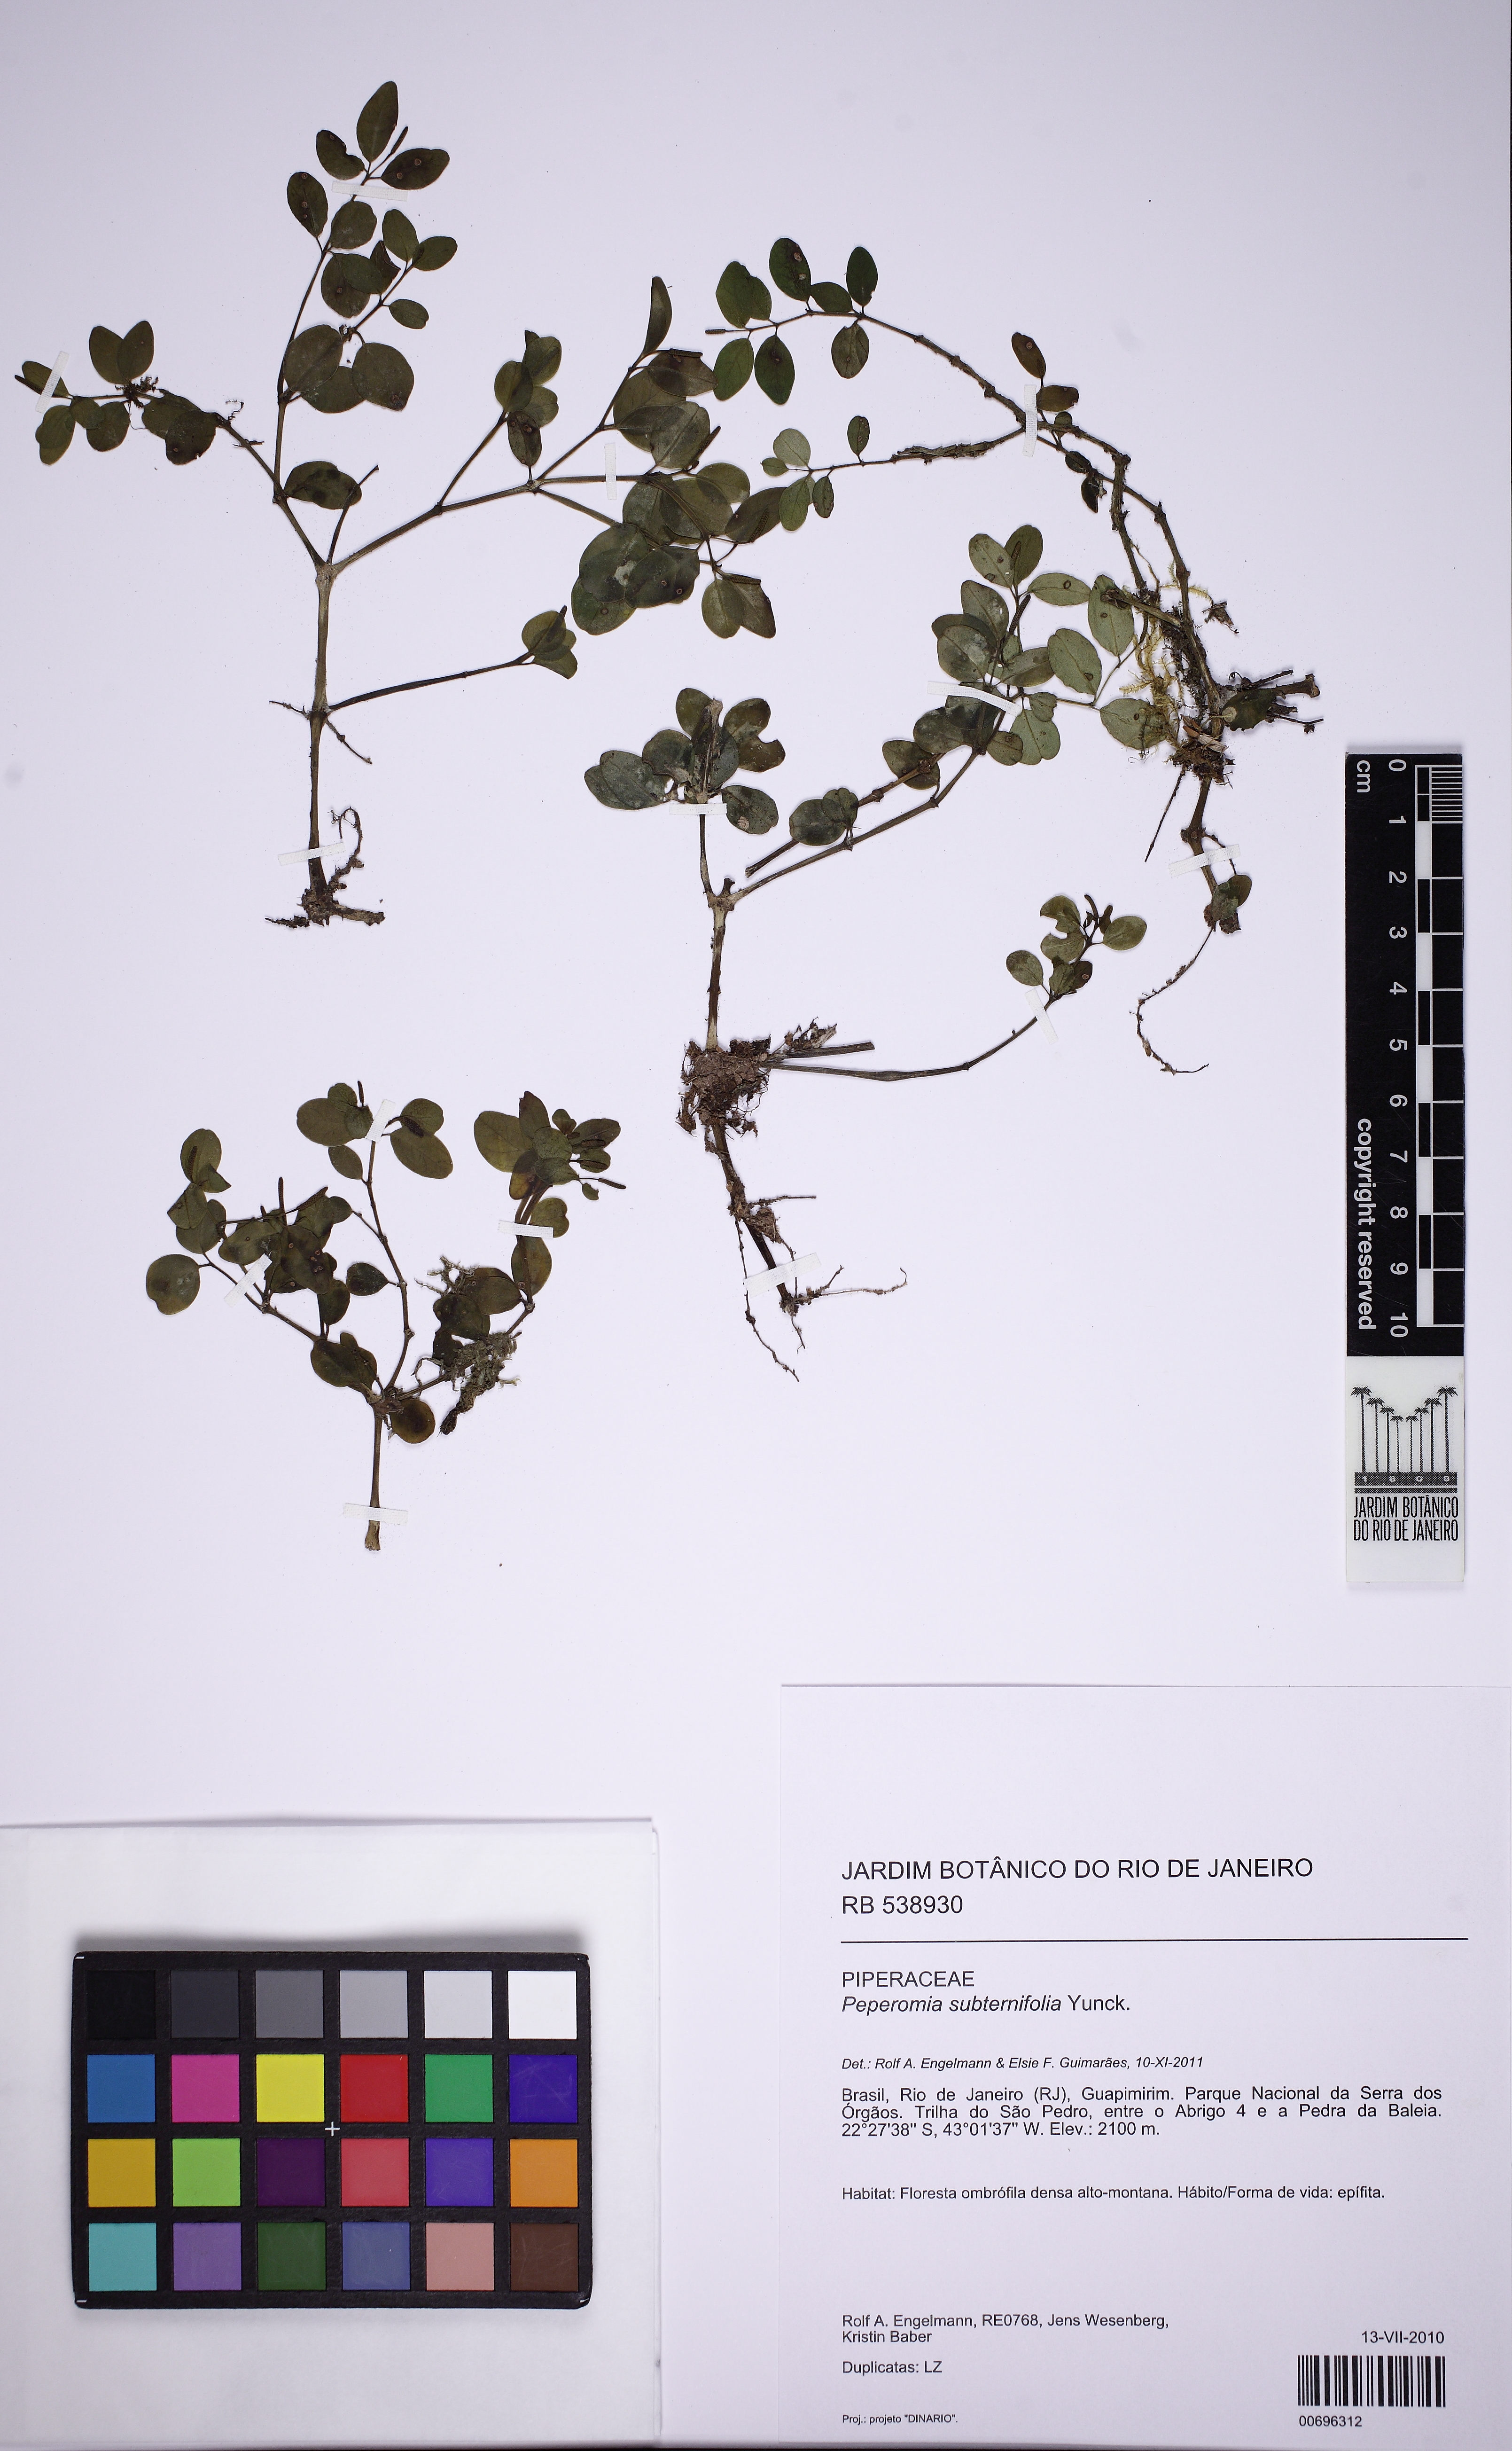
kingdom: Plantae
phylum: Tracheophyta
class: Magnoliopsida
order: Piperales
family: Piperaceae
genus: Peperomia
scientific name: Peperomia subternifolia
